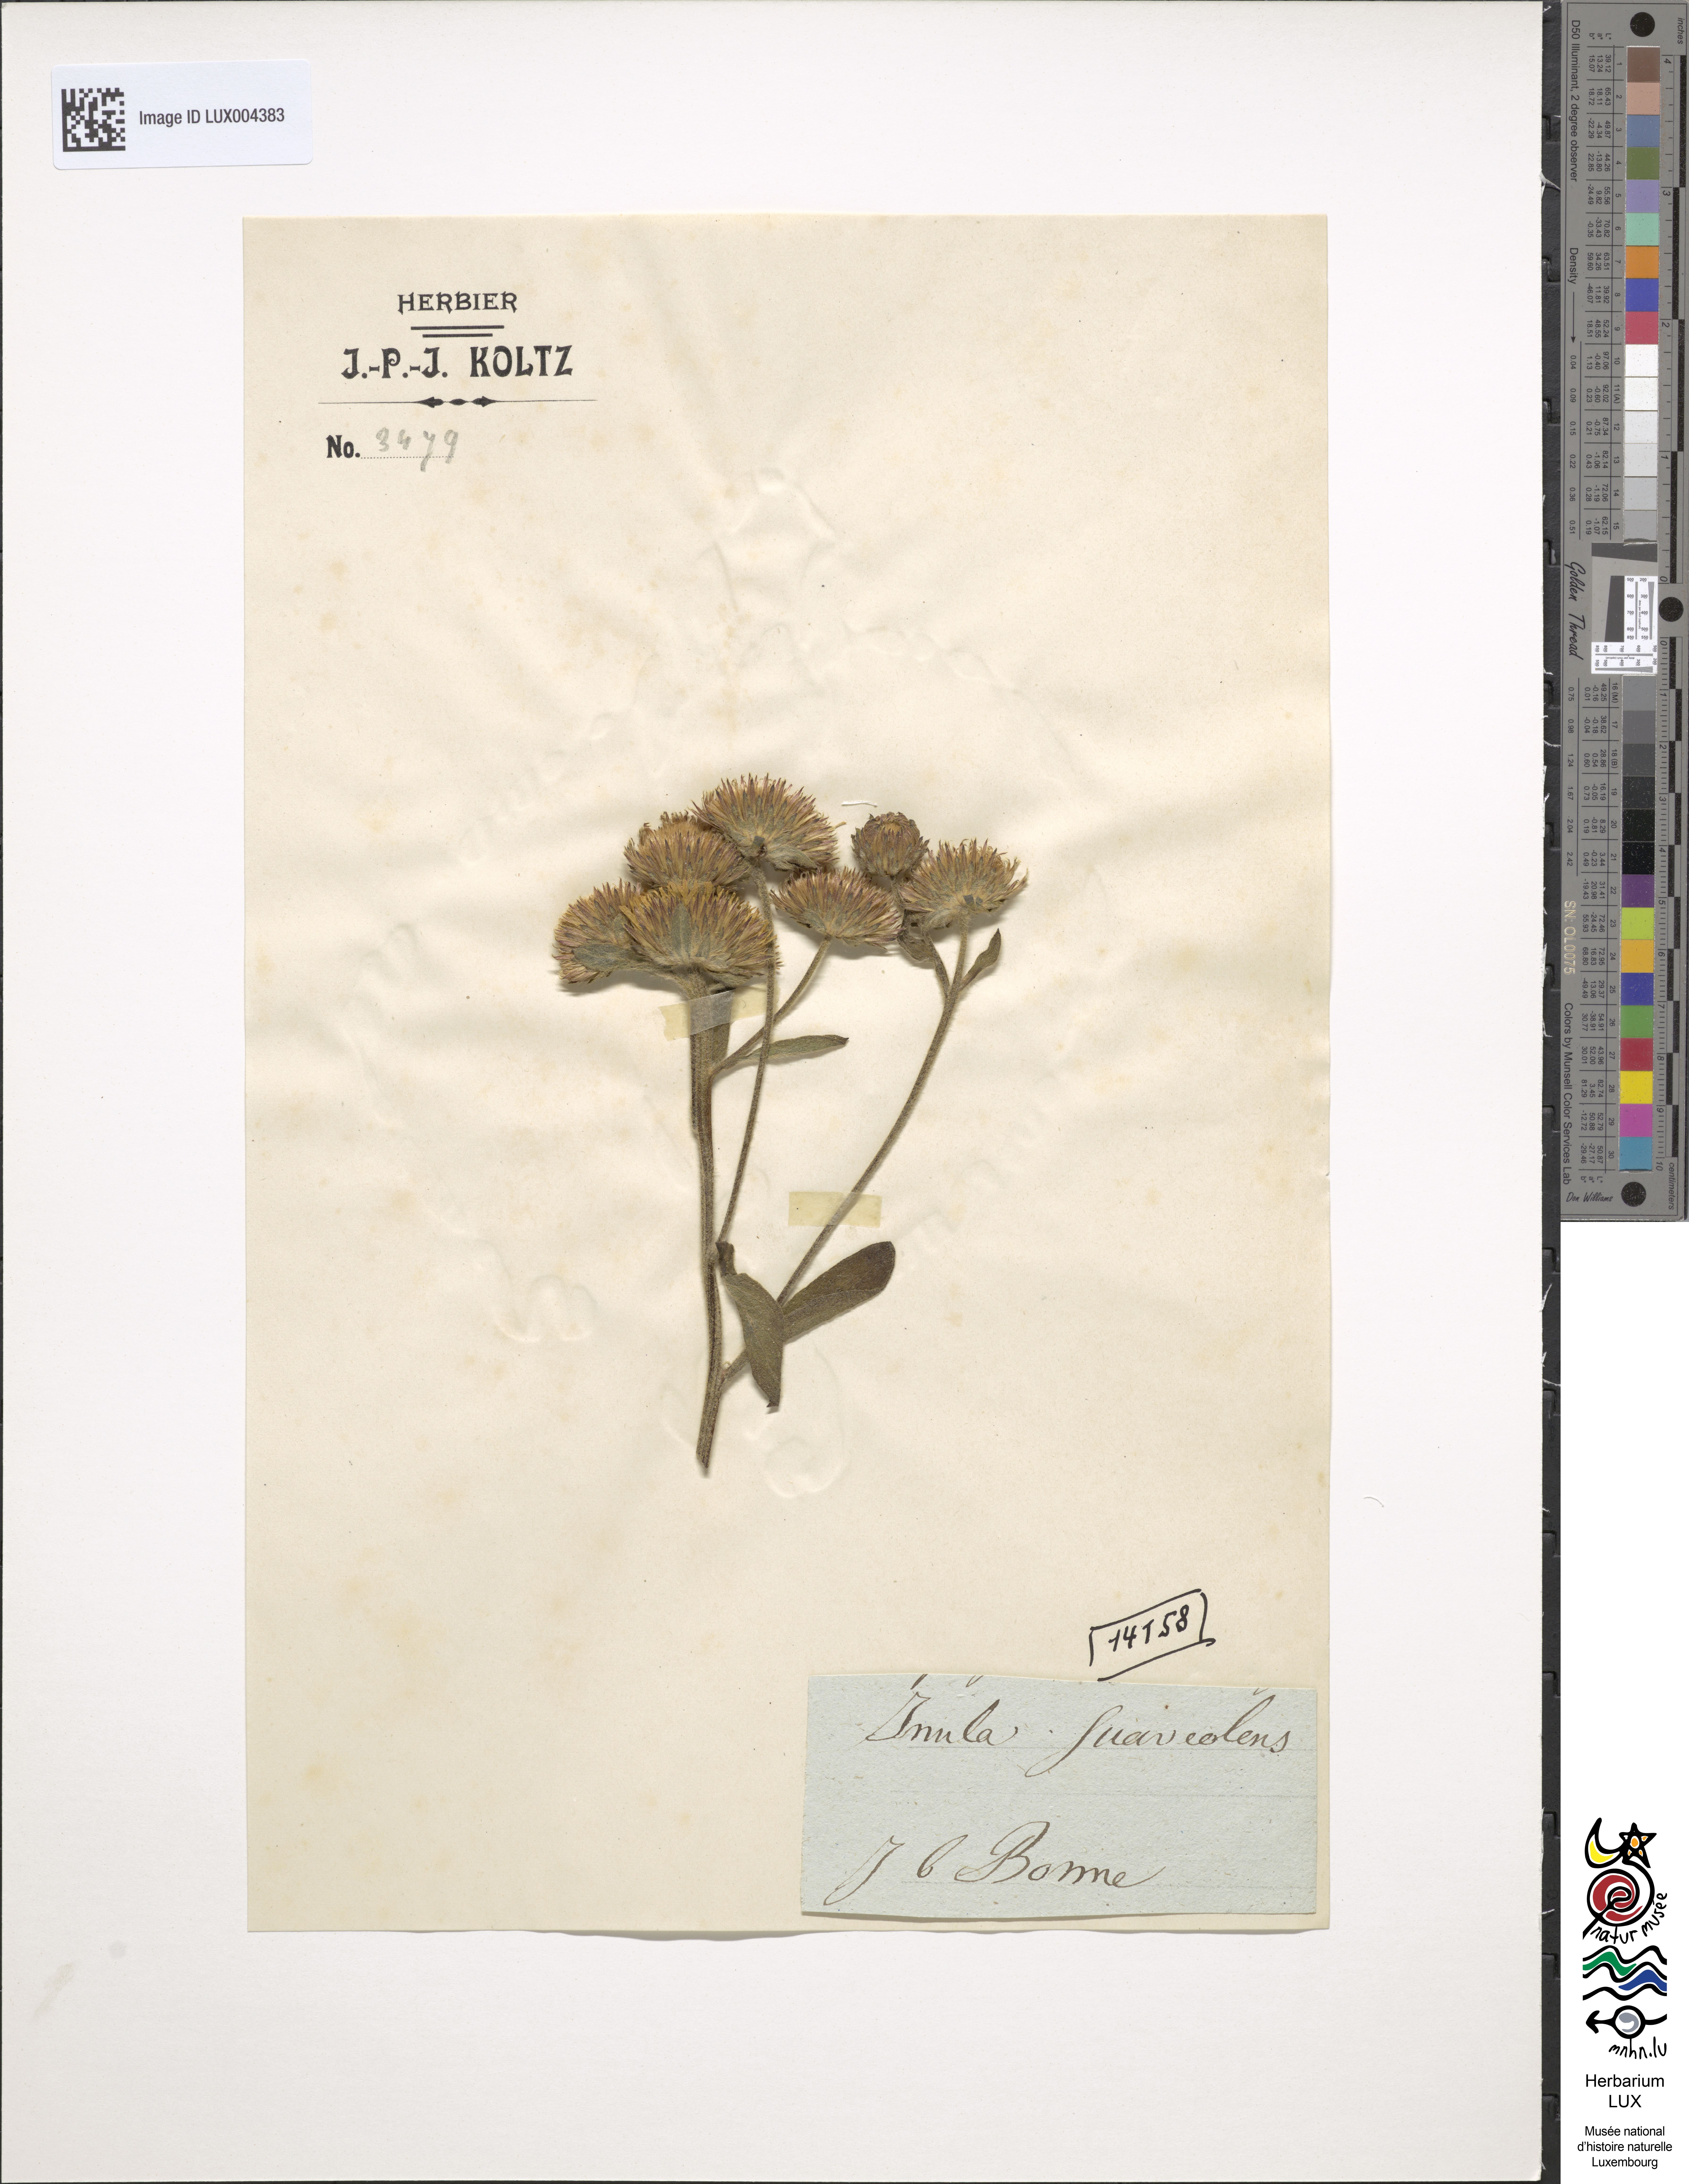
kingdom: Plantae
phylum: Tracheophyta
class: Magnoliopsida
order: Asterales
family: Asteraceae
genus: Pentanema
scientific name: Pentanema squarrosum
